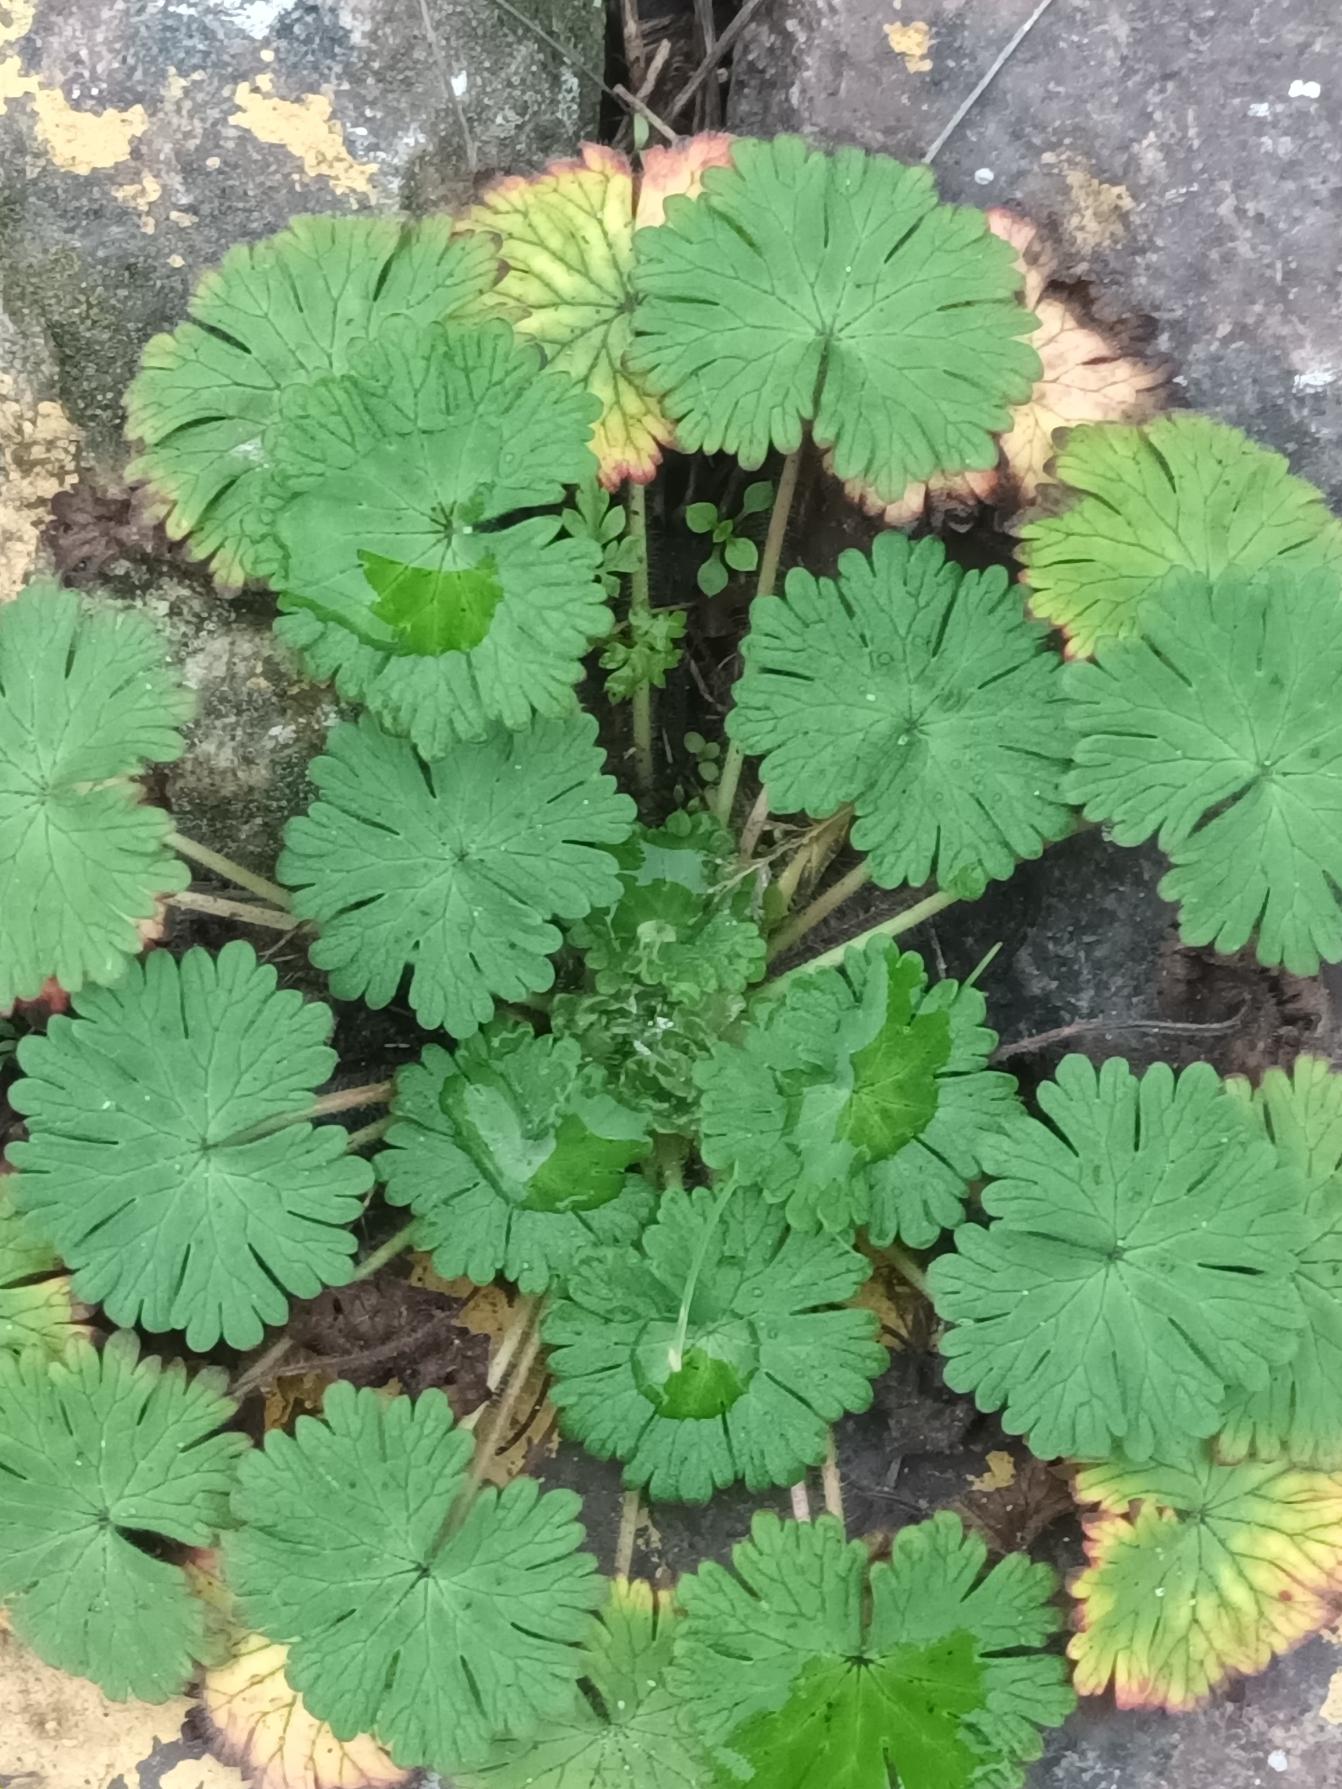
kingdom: Plantae
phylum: Tracheophyta
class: Magnoliopsida
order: Geraniales
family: Geraniaceae
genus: Geranium
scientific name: Geranium molle
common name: Blød storkenæb
